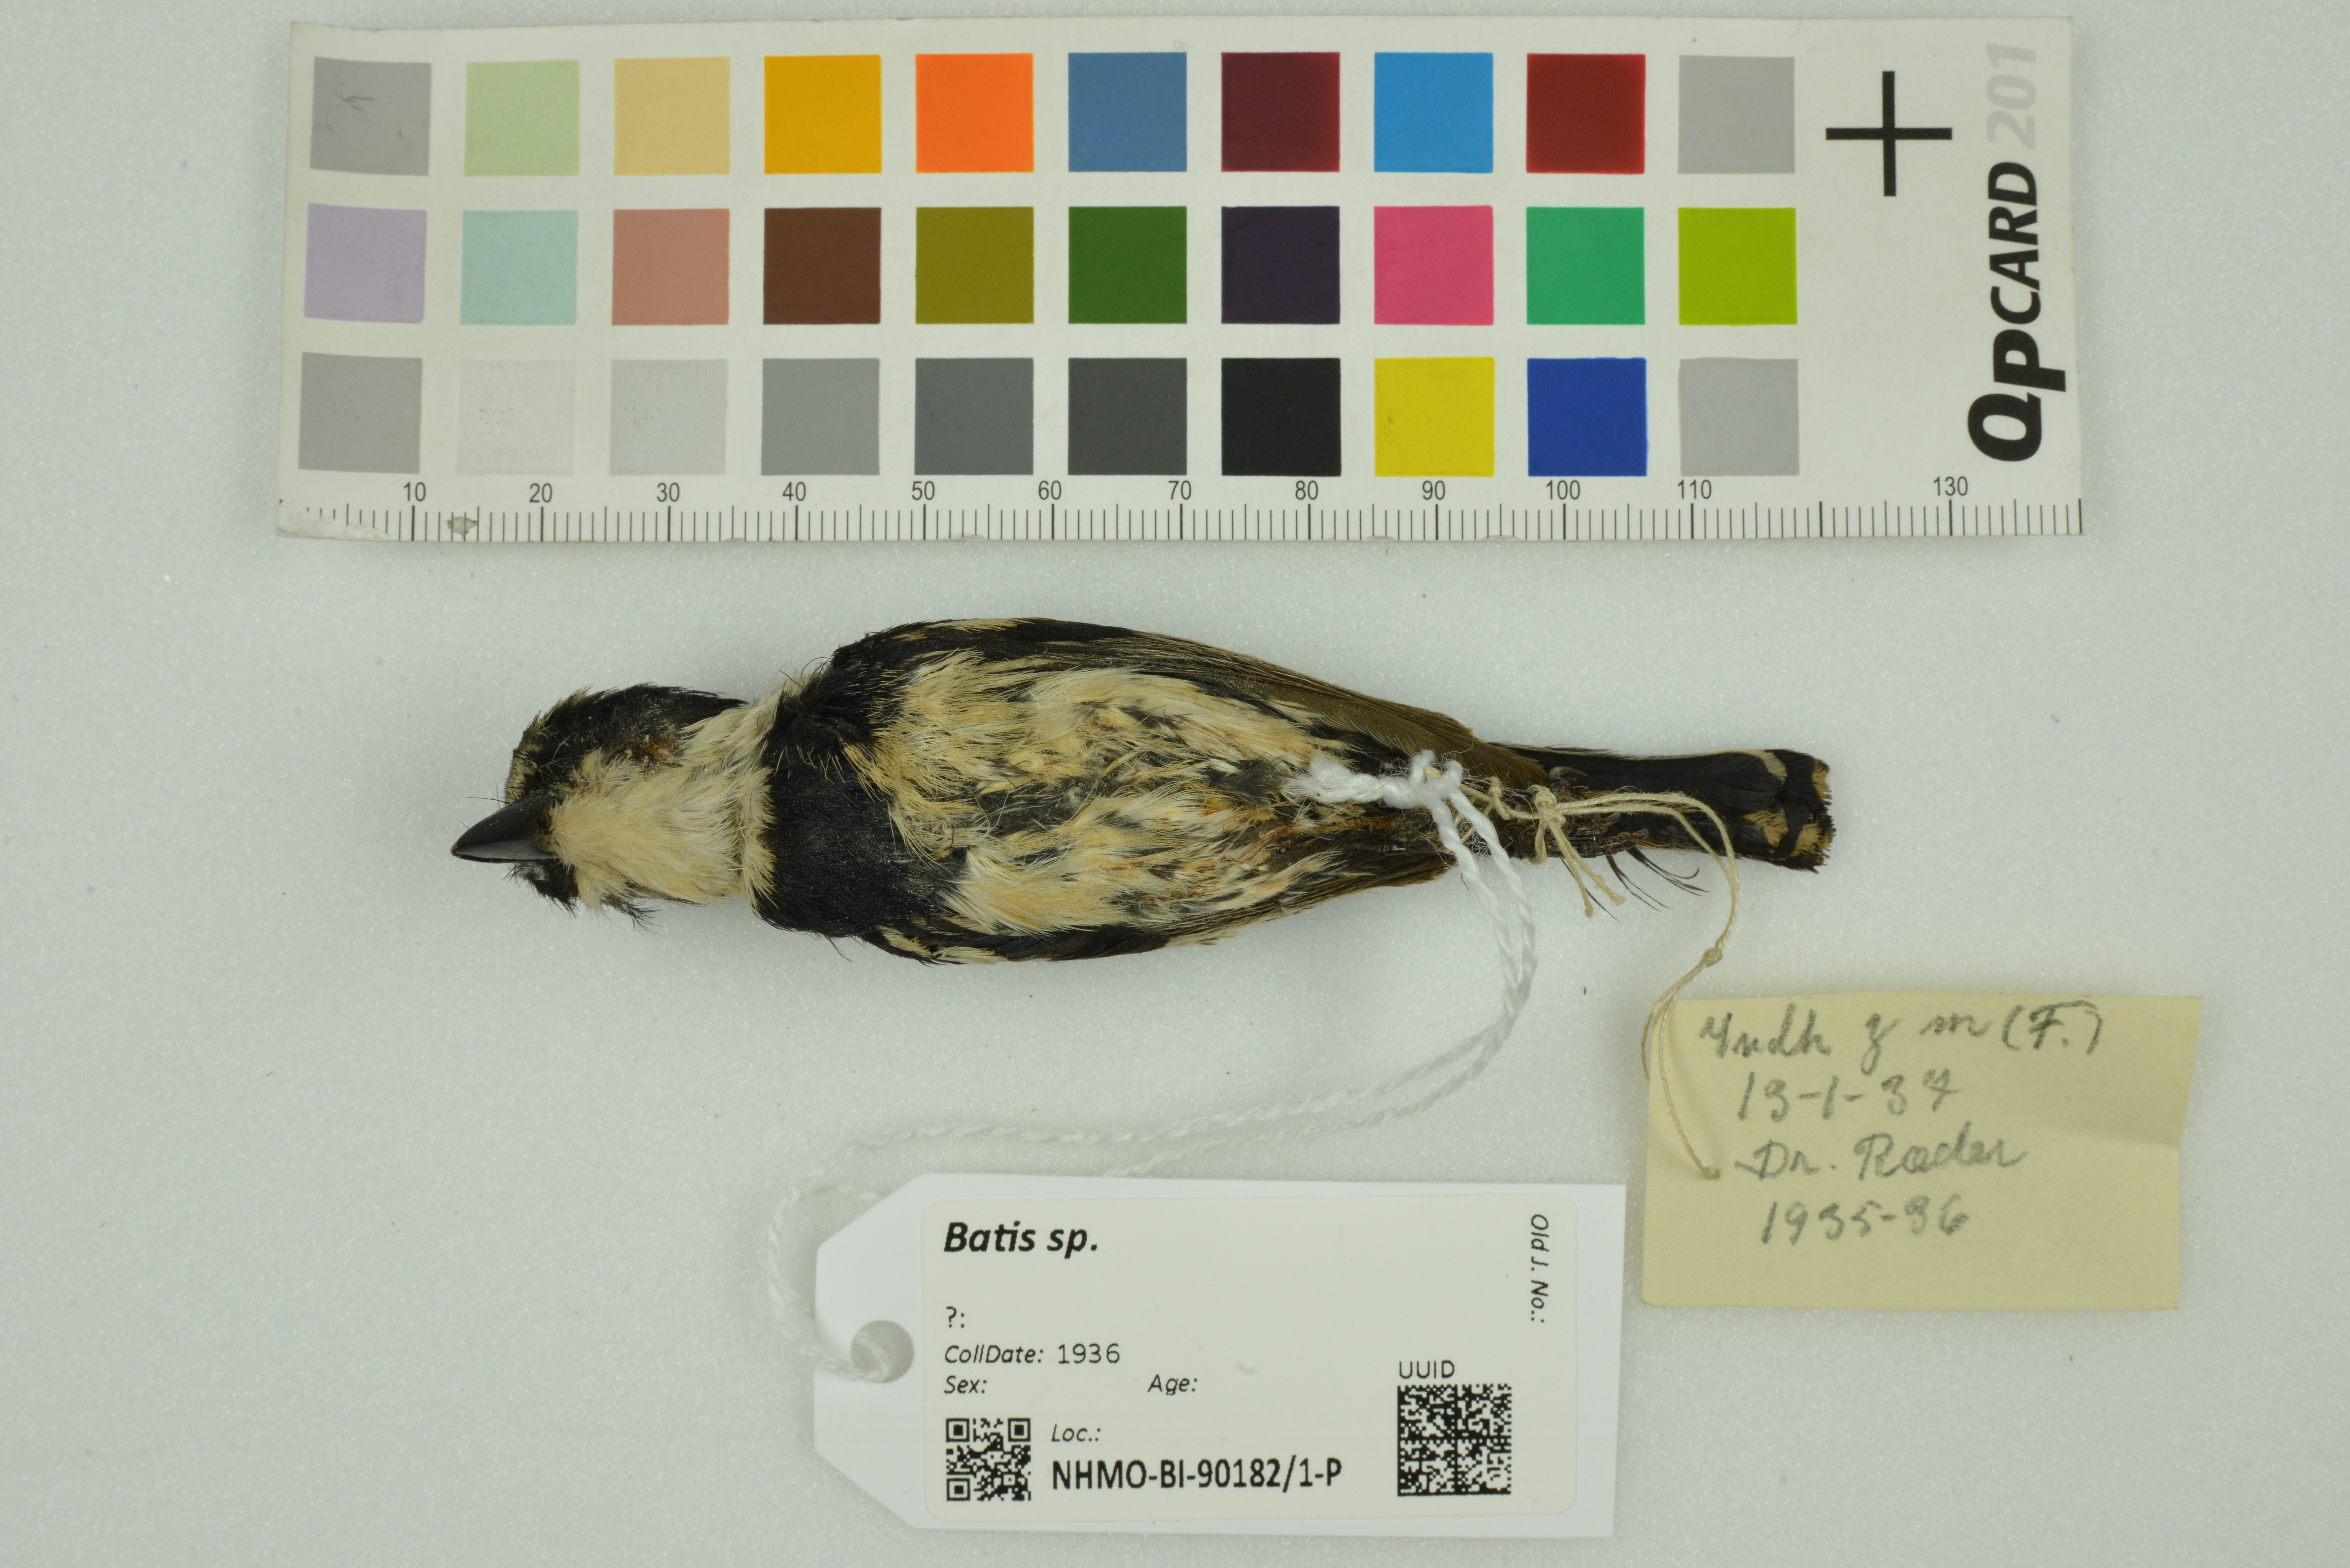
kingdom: Animalia
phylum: Chordata
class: Aves
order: Passeriformes
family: Platysteiridae
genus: Batis
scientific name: Batis
